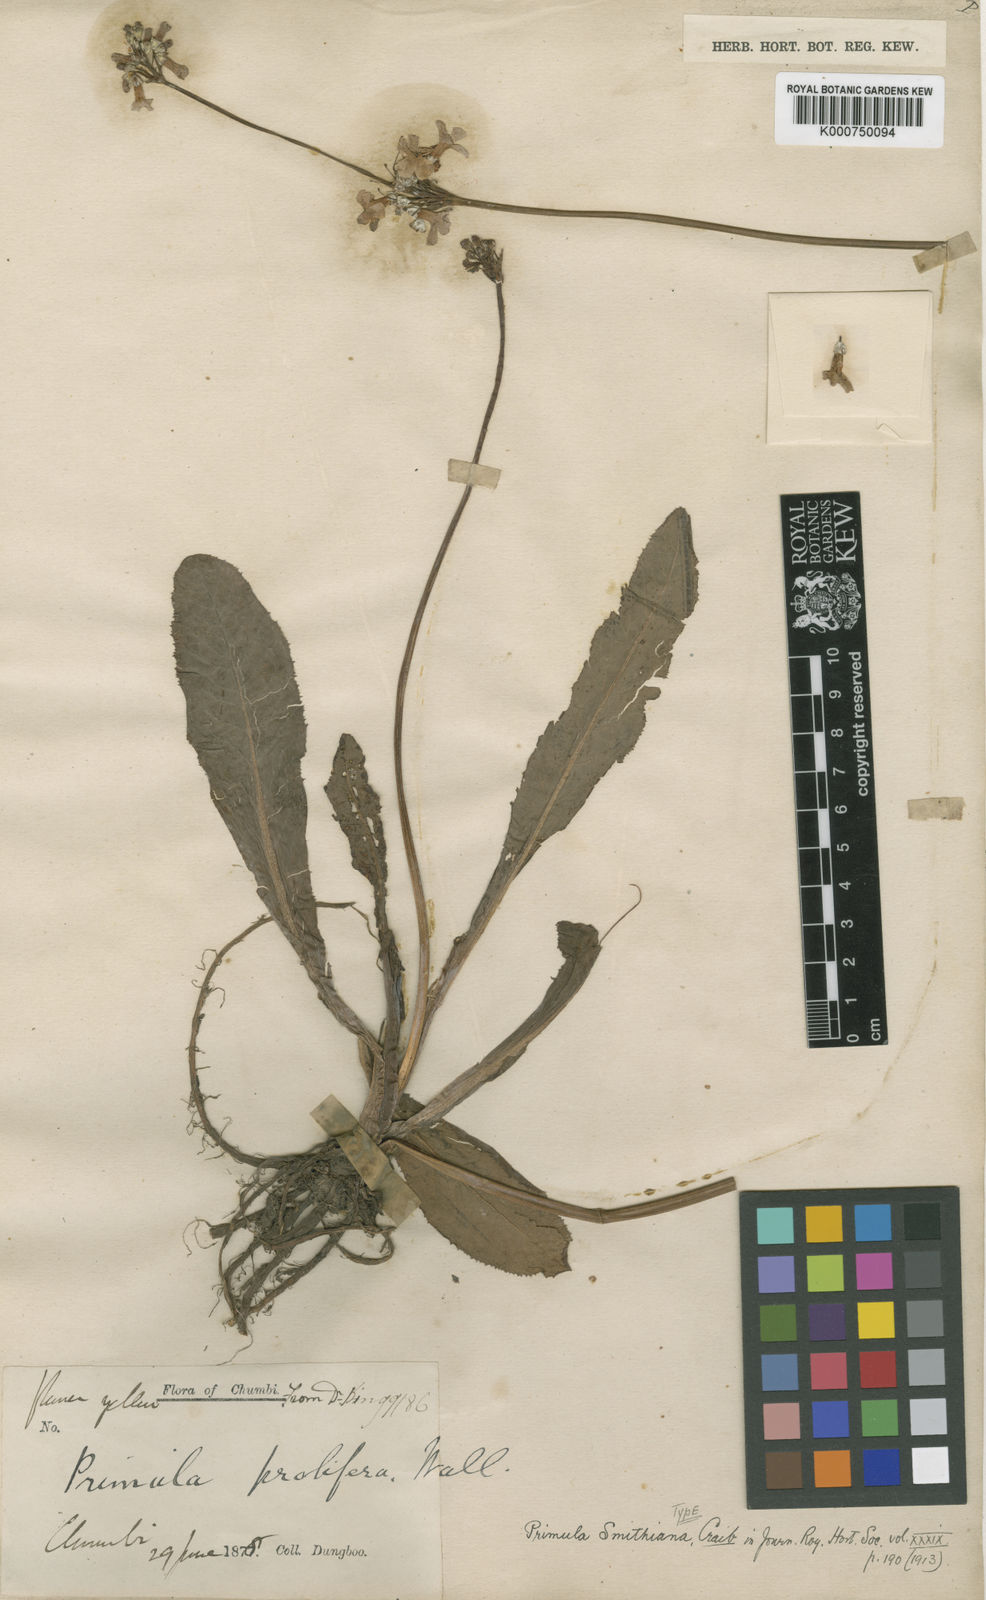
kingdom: Plantae
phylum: Tracheophyta
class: Magnoliopsida
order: Ericales
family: Primulaceae
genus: Primula
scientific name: Primula smithiana
